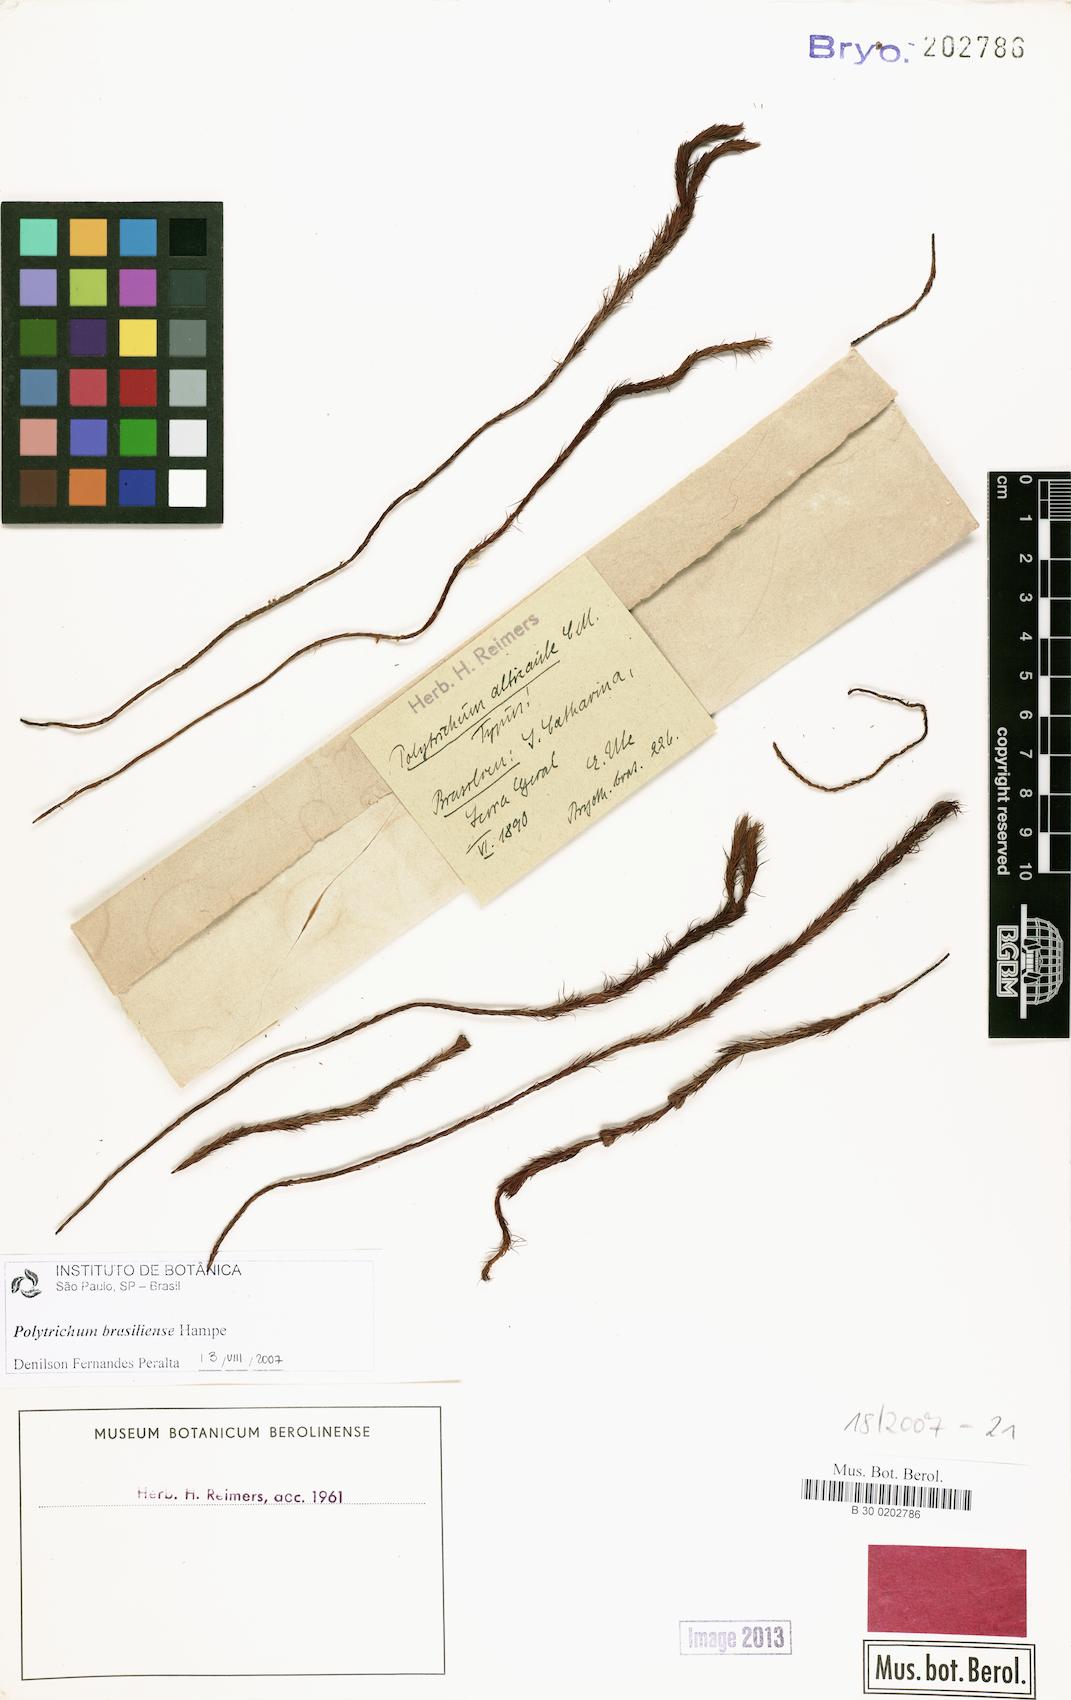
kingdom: Plantae
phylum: Bryophyta
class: Polytrichopsida
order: Polytrichales
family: Polytrichaceae
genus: Polytrichum
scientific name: Polytrichum angustifolium
